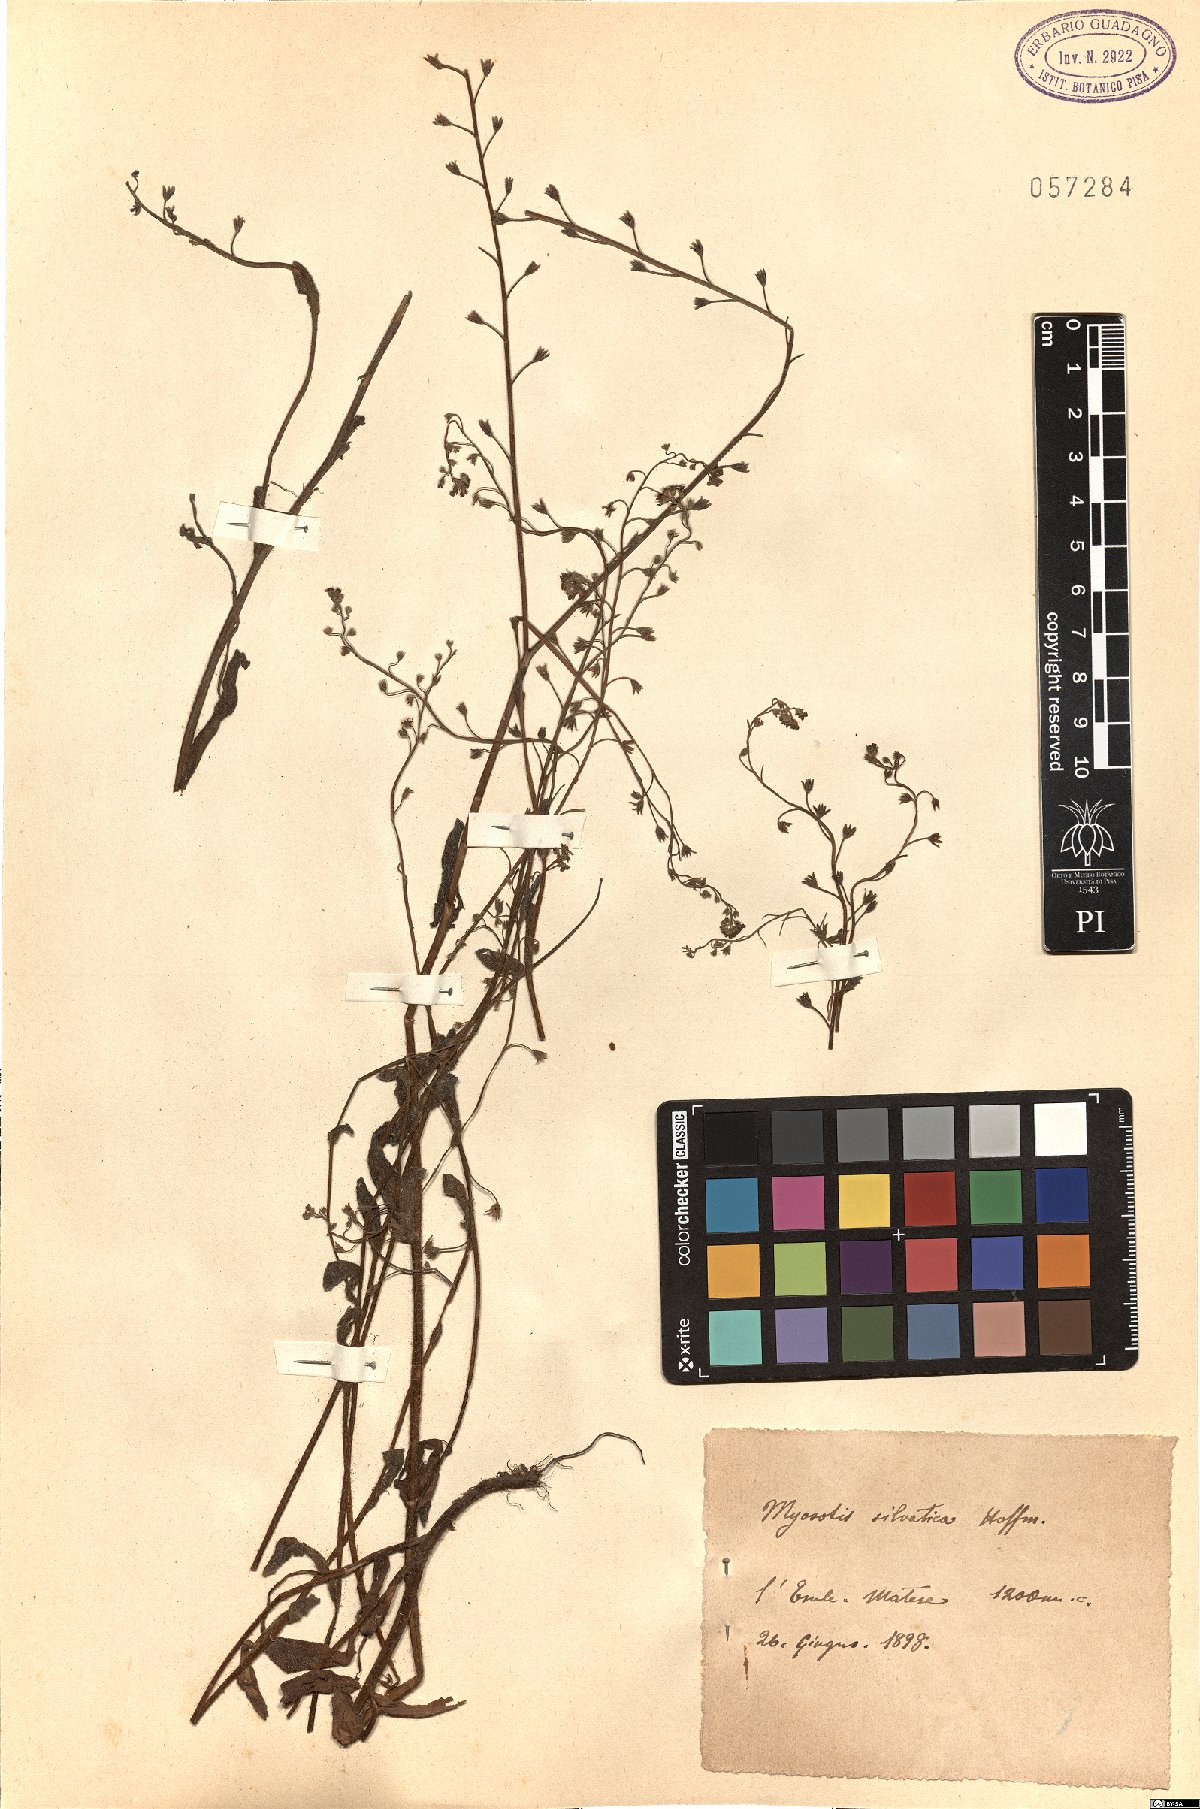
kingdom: Plantae
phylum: Tracheophyta
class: Magnoliopsida
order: Boraginales
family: Boraginaceae
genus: Myosotis
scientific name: Myosotis sylvatica
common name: Wood forget-me-not
